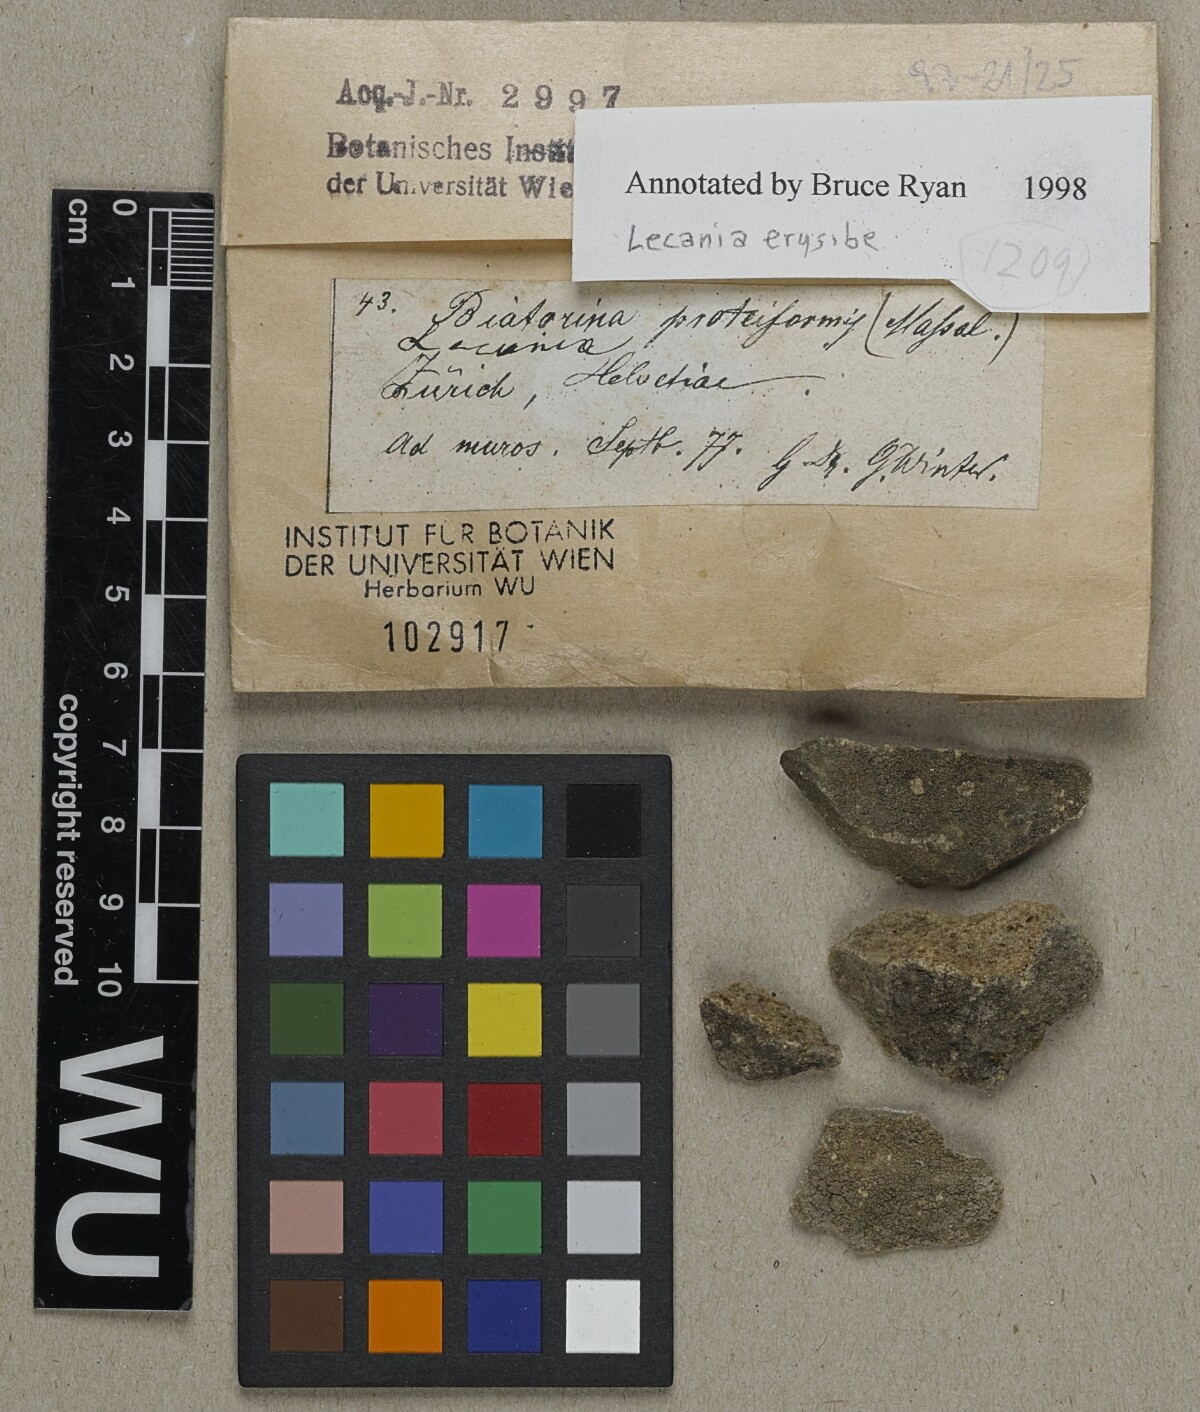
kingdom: Fungi
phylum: Ascomycota
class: Lecanoromycetes
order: Lecanorales
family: Ramalinaceae
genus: Lecania
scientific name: Lecania erysibe
